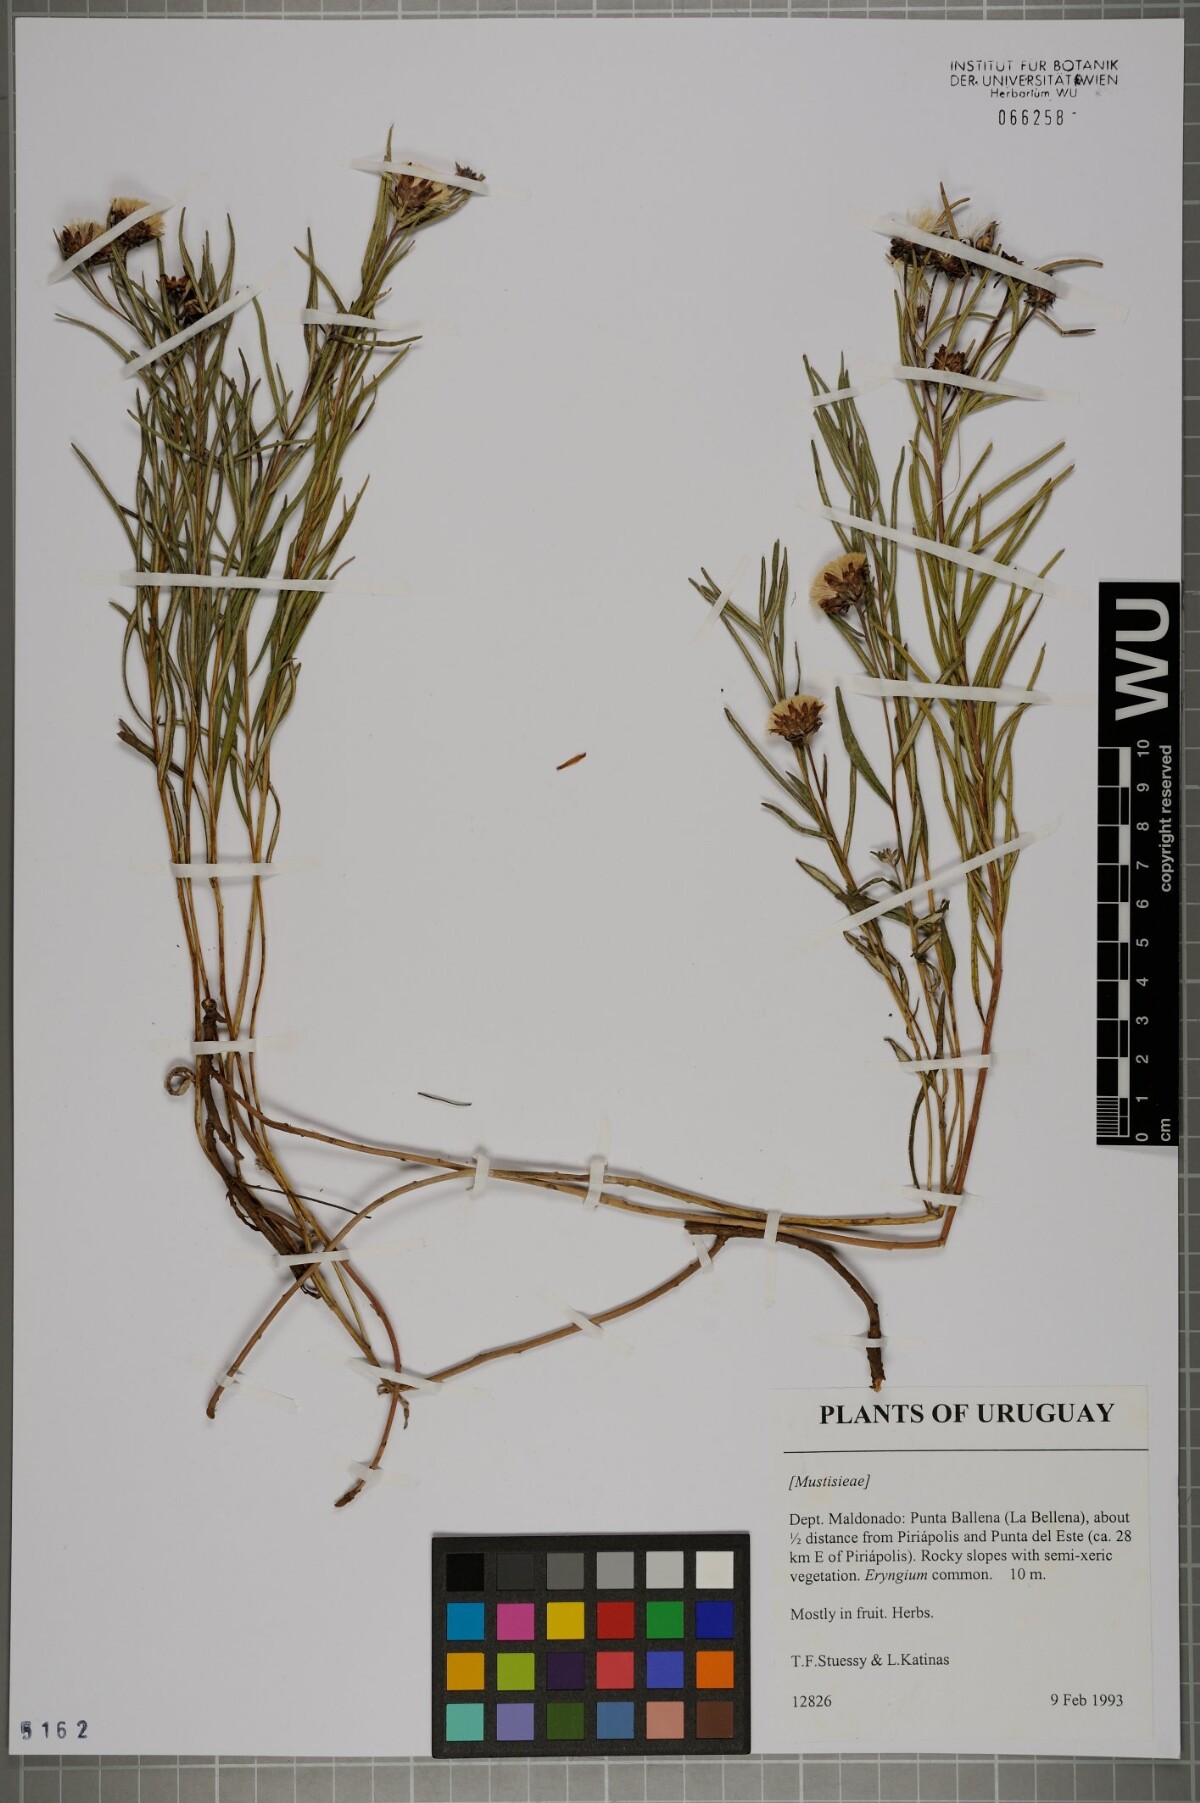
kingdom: Plantae
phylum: Tracheophyta
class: Magnoliopsida
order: Asterales
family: Asteraceae
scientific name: Asteraceae
